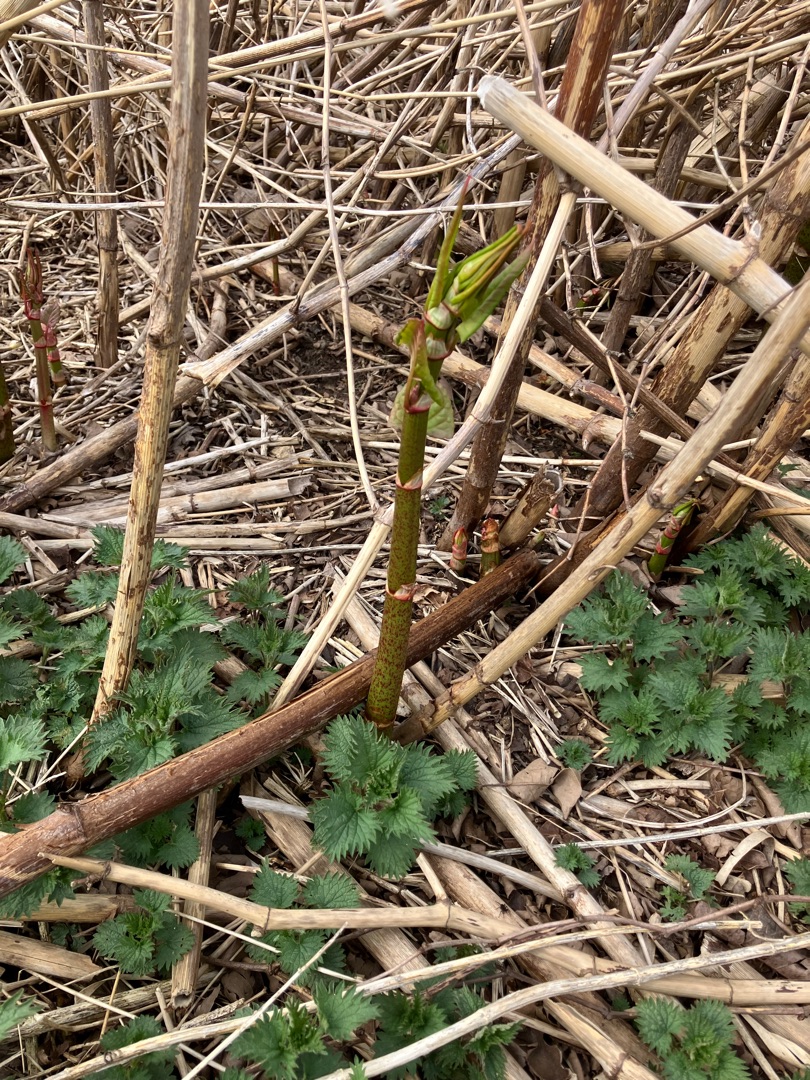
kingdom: Plantae
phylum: Tracheophyta
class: Magnoliopsida
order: Caryophyllales
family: Polygonaceae
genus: Reynoutria
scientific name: Reynoutria japonica
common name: Japan-pileurt
